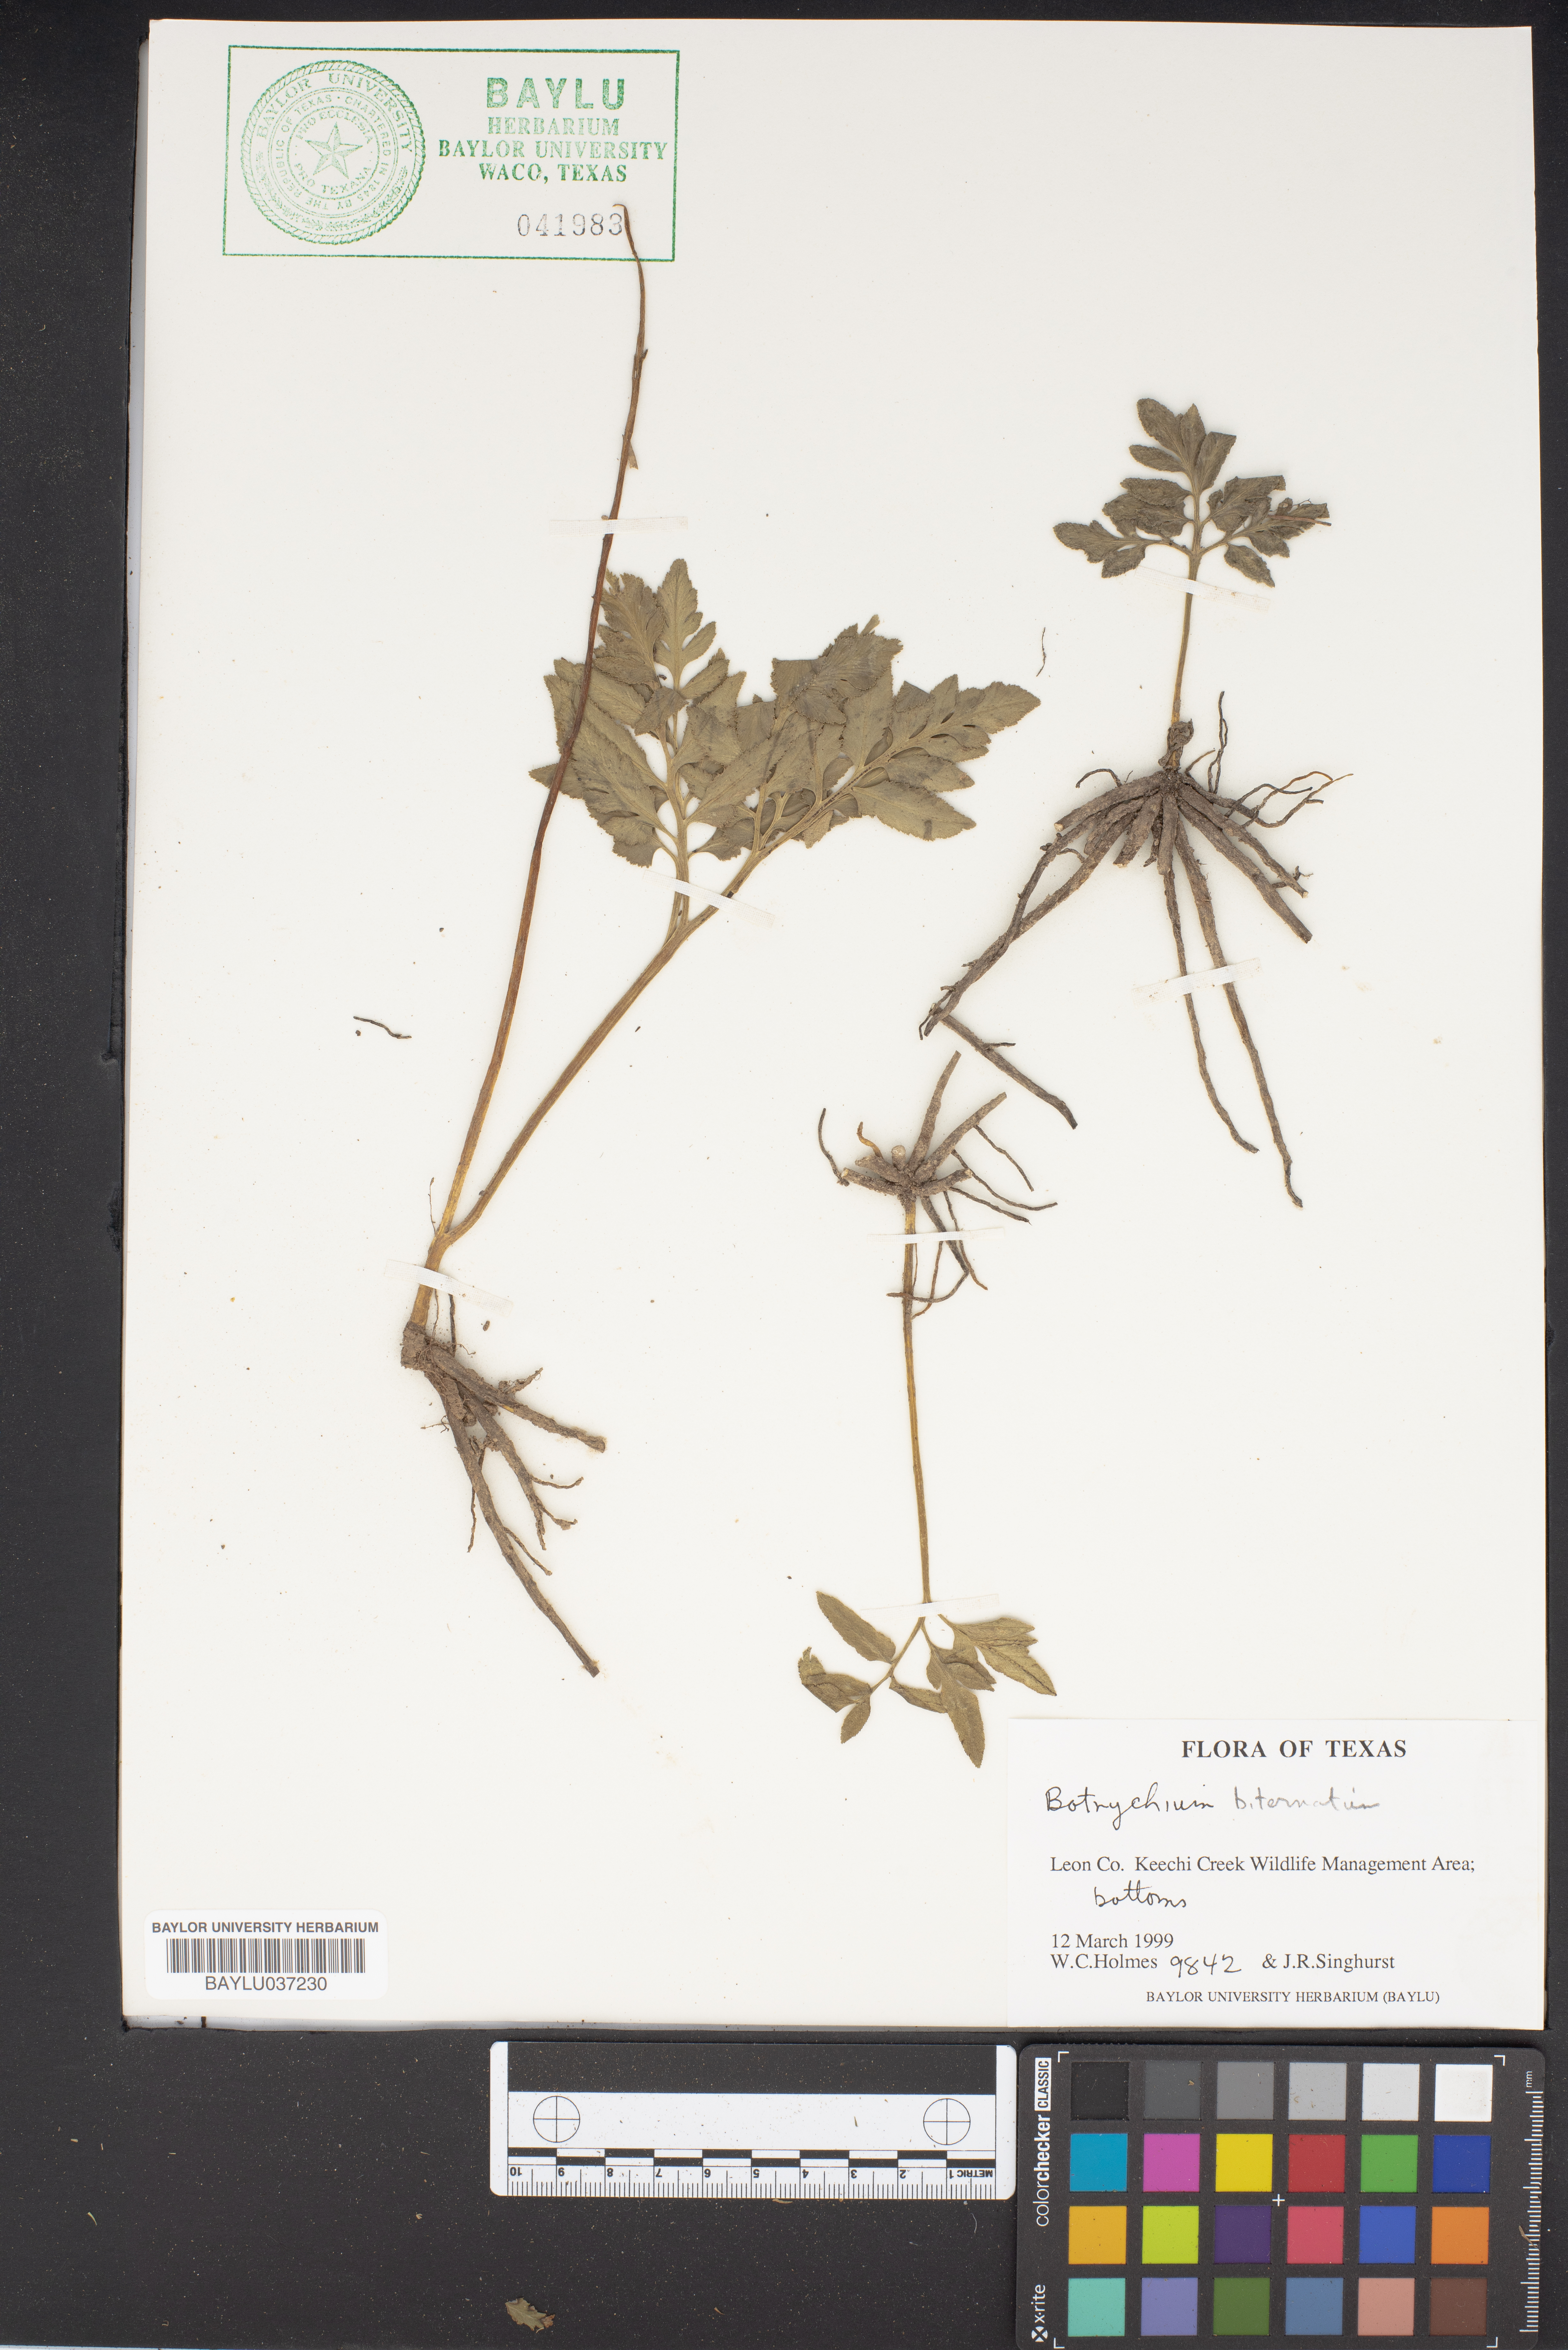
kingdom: Plantae
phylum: Tracheophyta
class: Polypodiopsida
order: Ophioglossales
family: Ophioglossaceae
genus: Sceptridium
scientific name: Sceptridium biternatum
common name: Sparse-lobed grapefern
